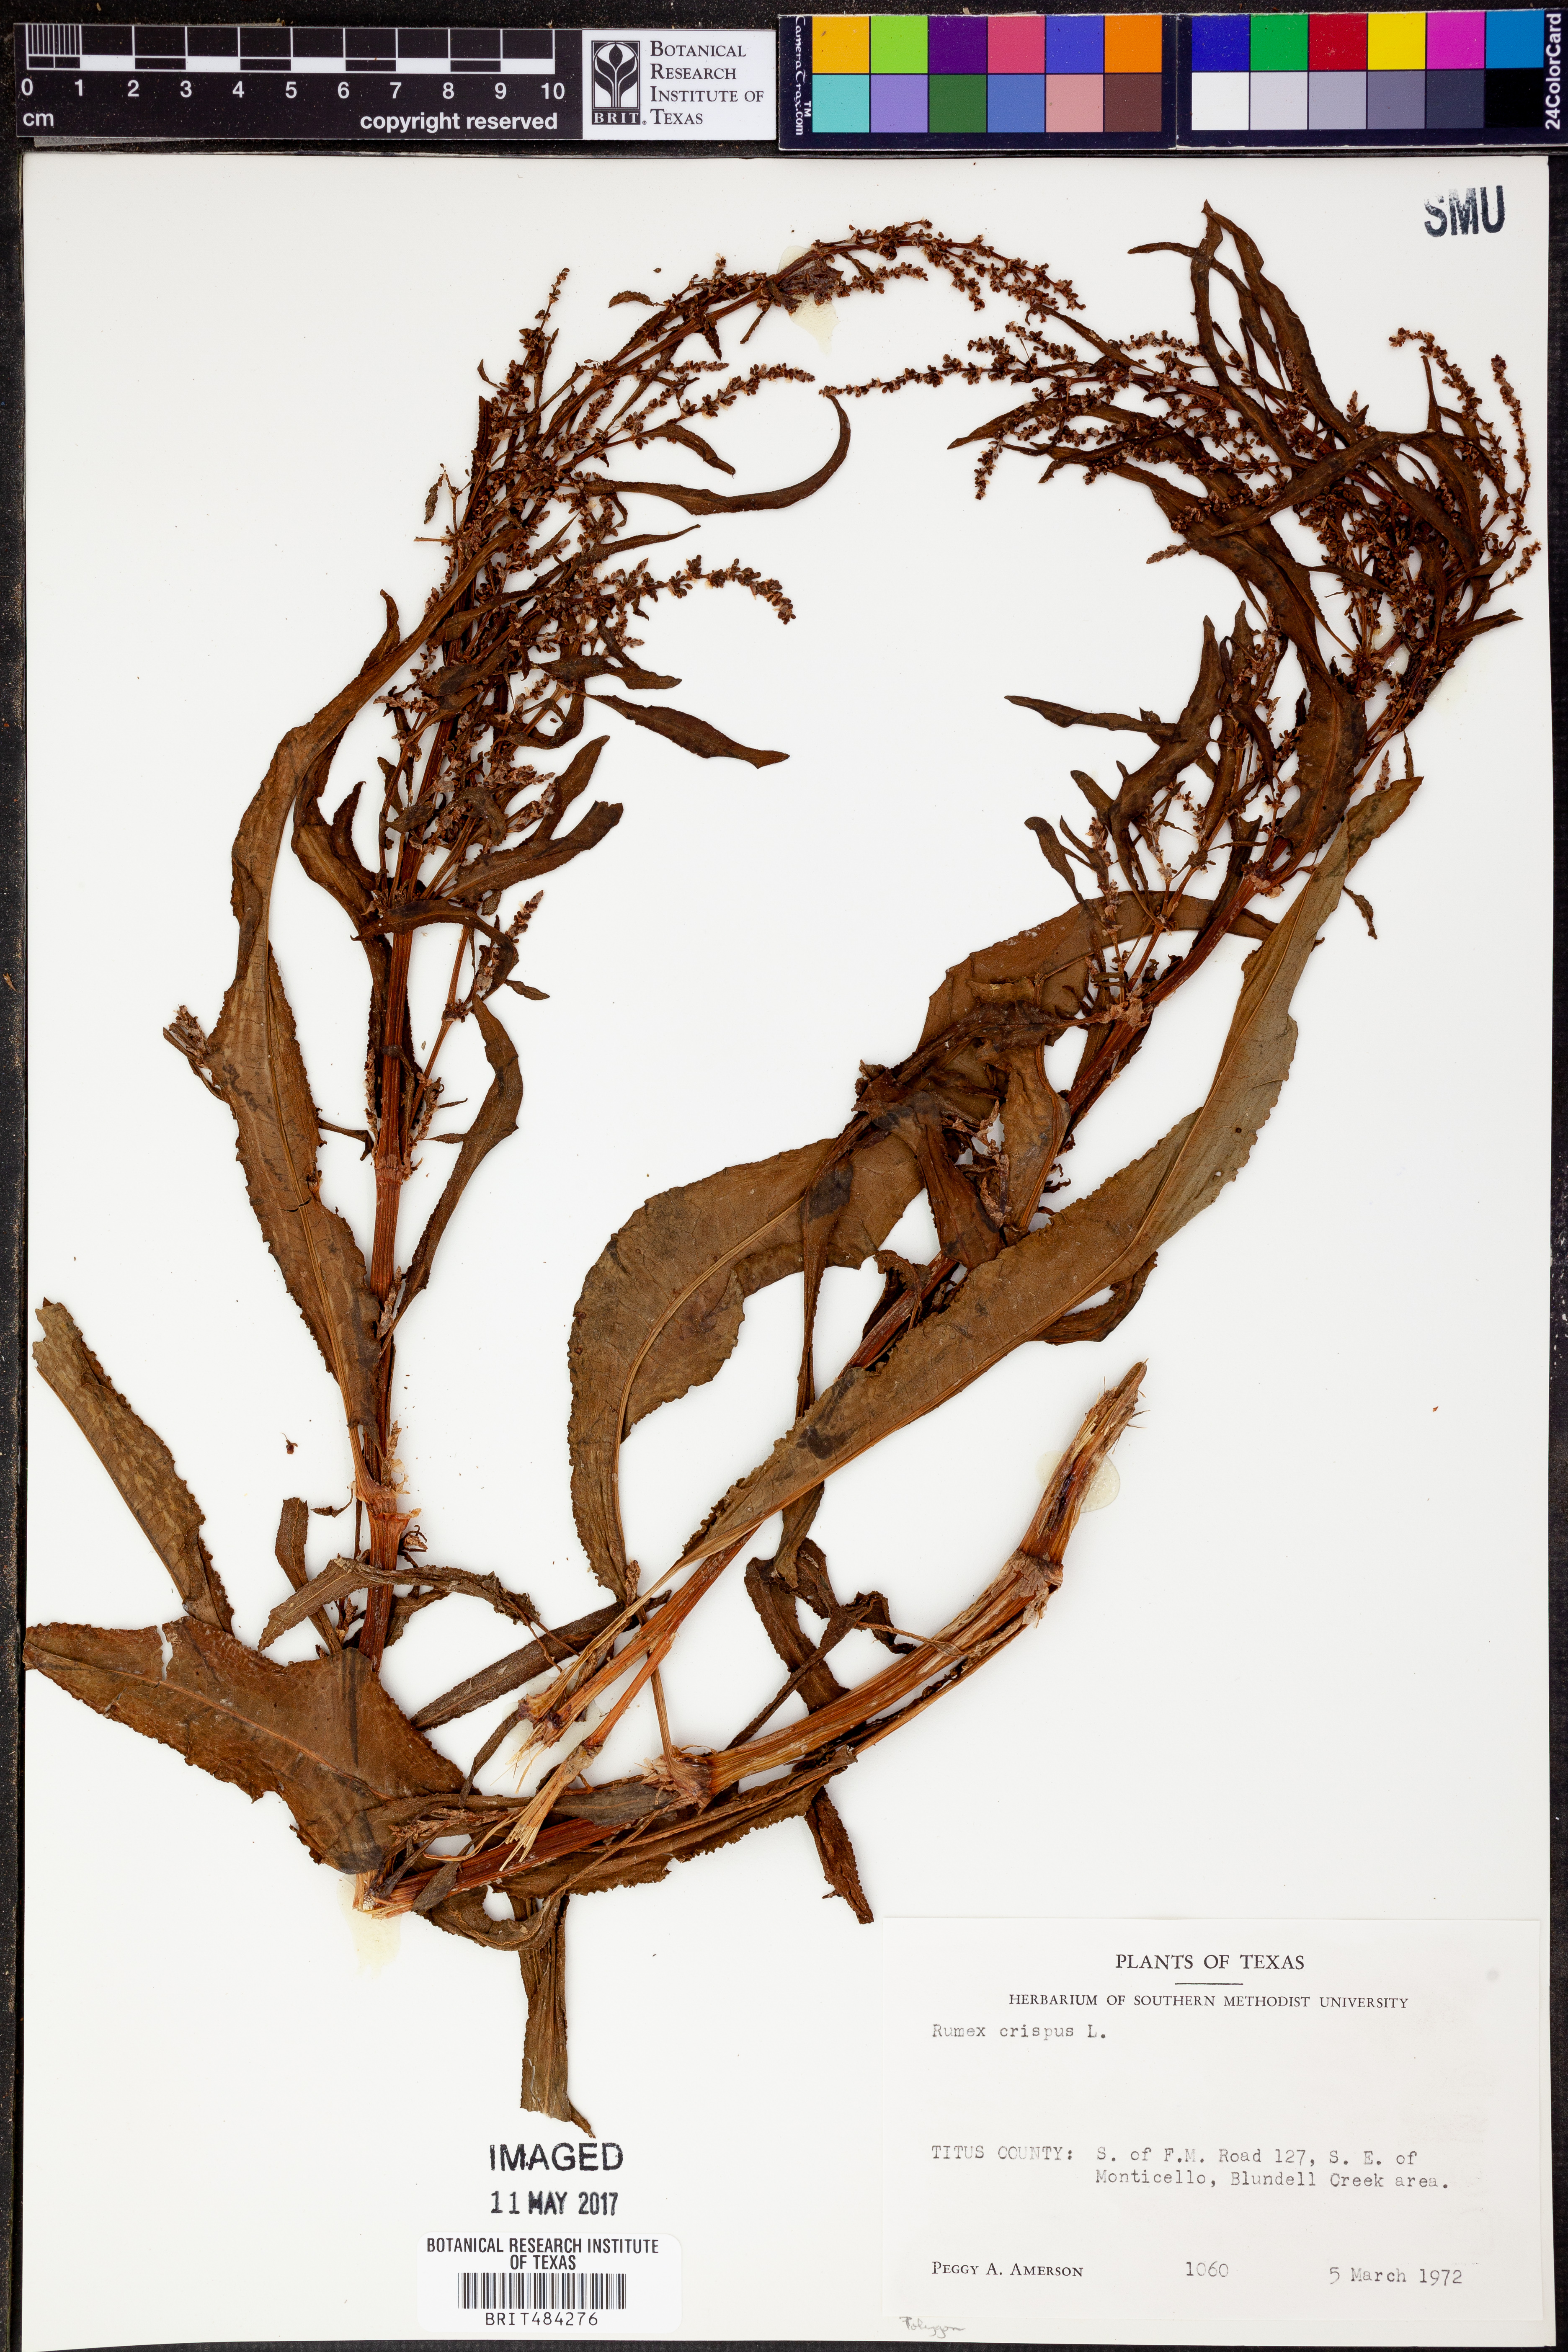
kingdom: Plantae
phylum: Tracheophyta
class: Magnoliopsida
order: Caryophyllales
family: Polygonaceae
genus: Rumex
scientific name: Rumex crispus
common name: Curled dock
